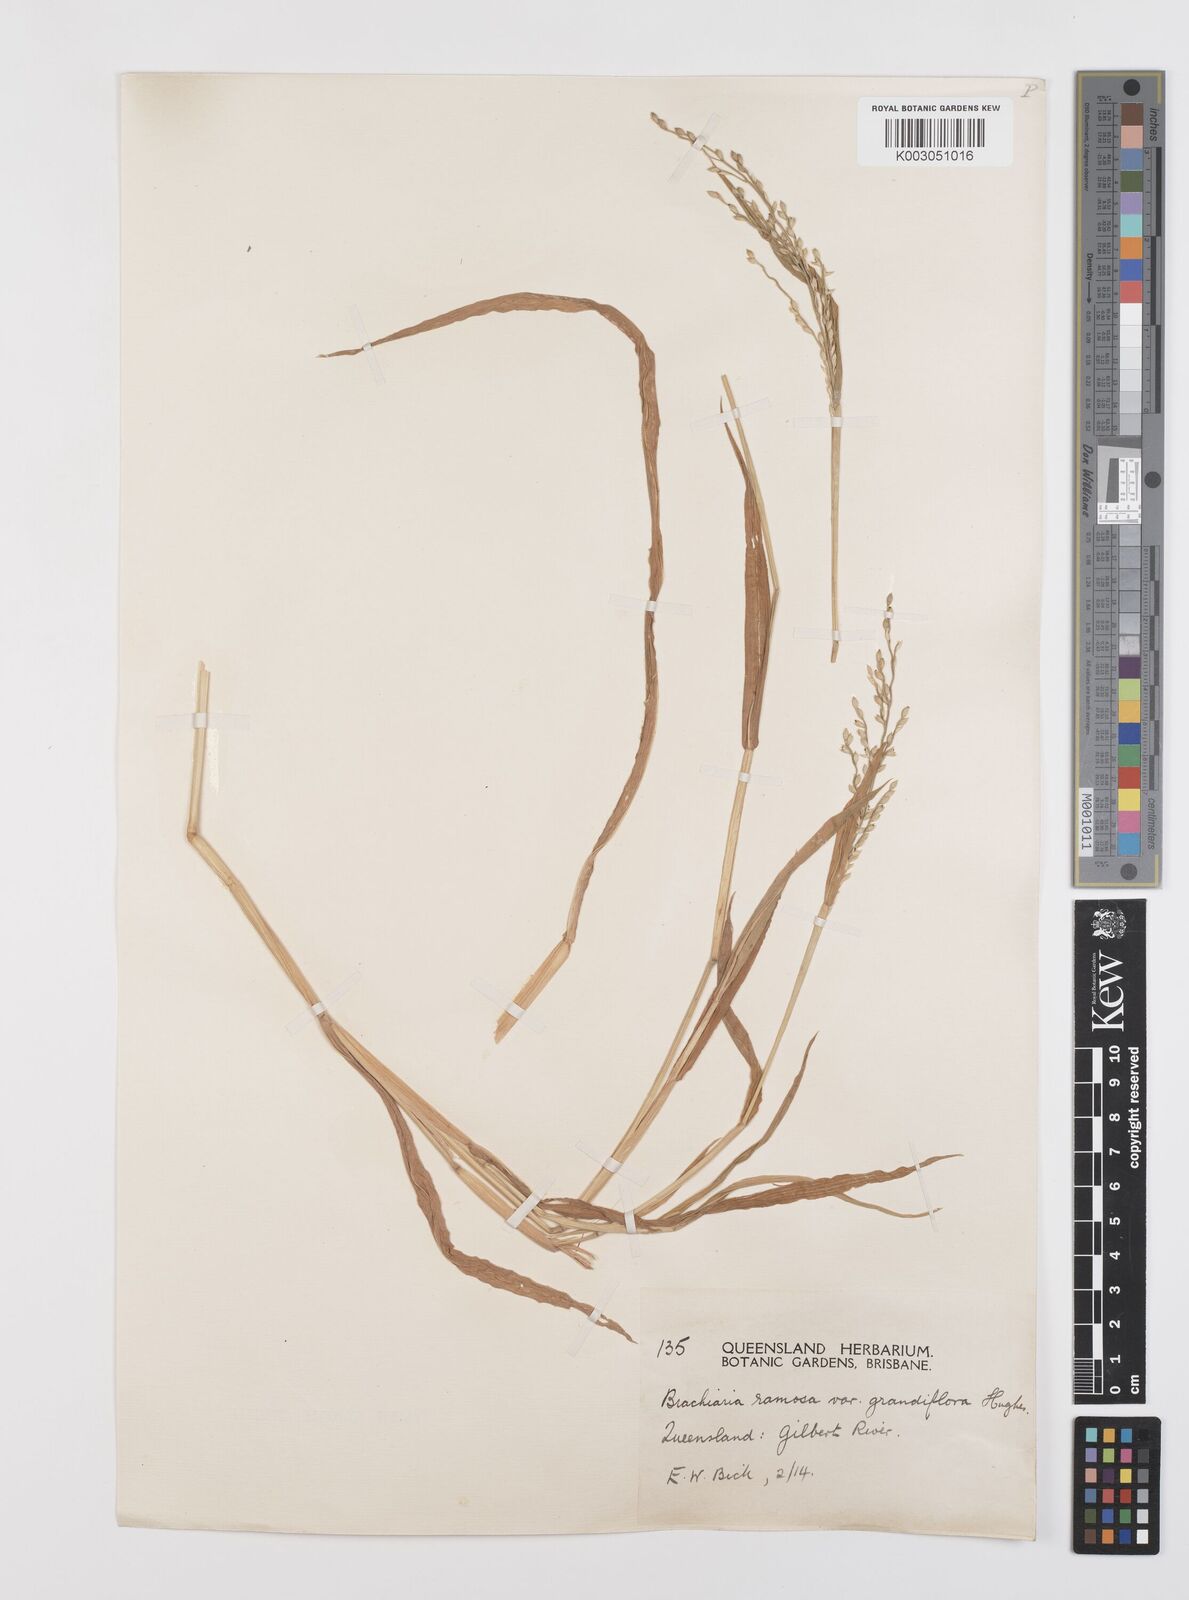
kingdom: Plantae
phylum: Tracheophyta
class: Liliopsida
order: Poales
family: Poaceae
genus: Urochloa
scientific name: Urochloa pubigera
